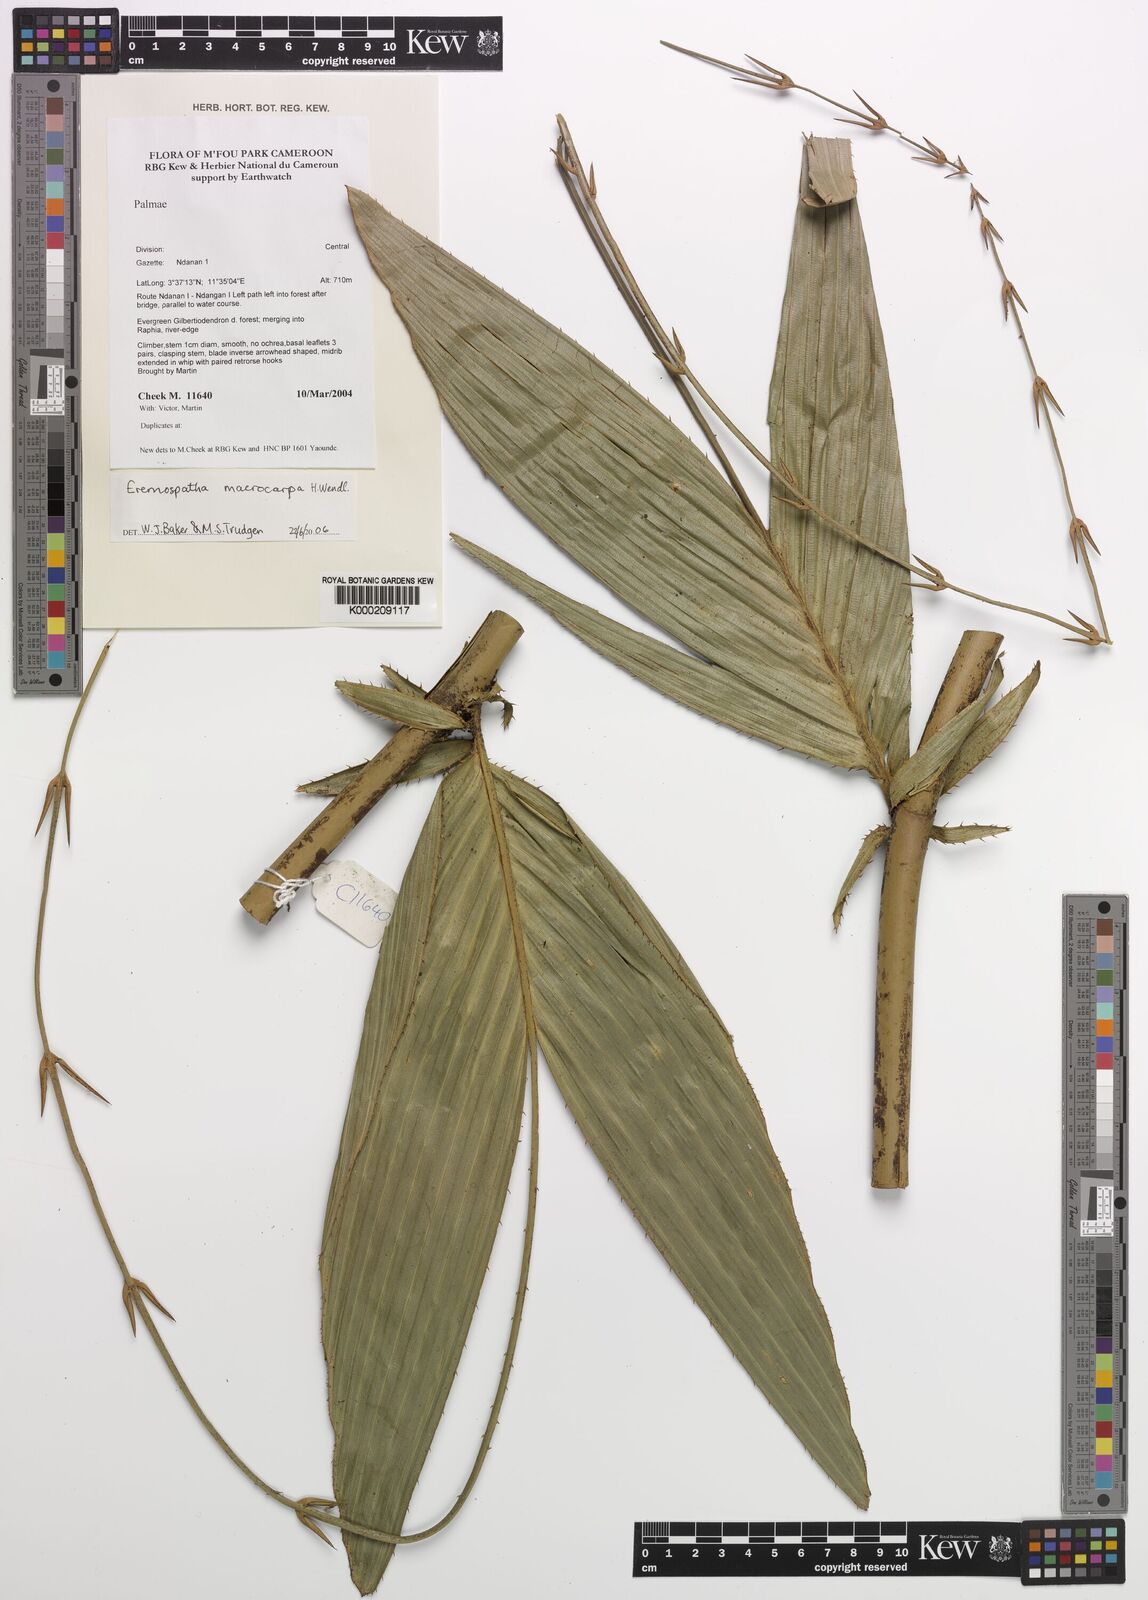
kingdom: Plantae
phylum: Tracheophyta
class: Liliopsida
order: Arecales
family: Arecaceae
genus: Eremospatha
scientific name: Eremospatha
